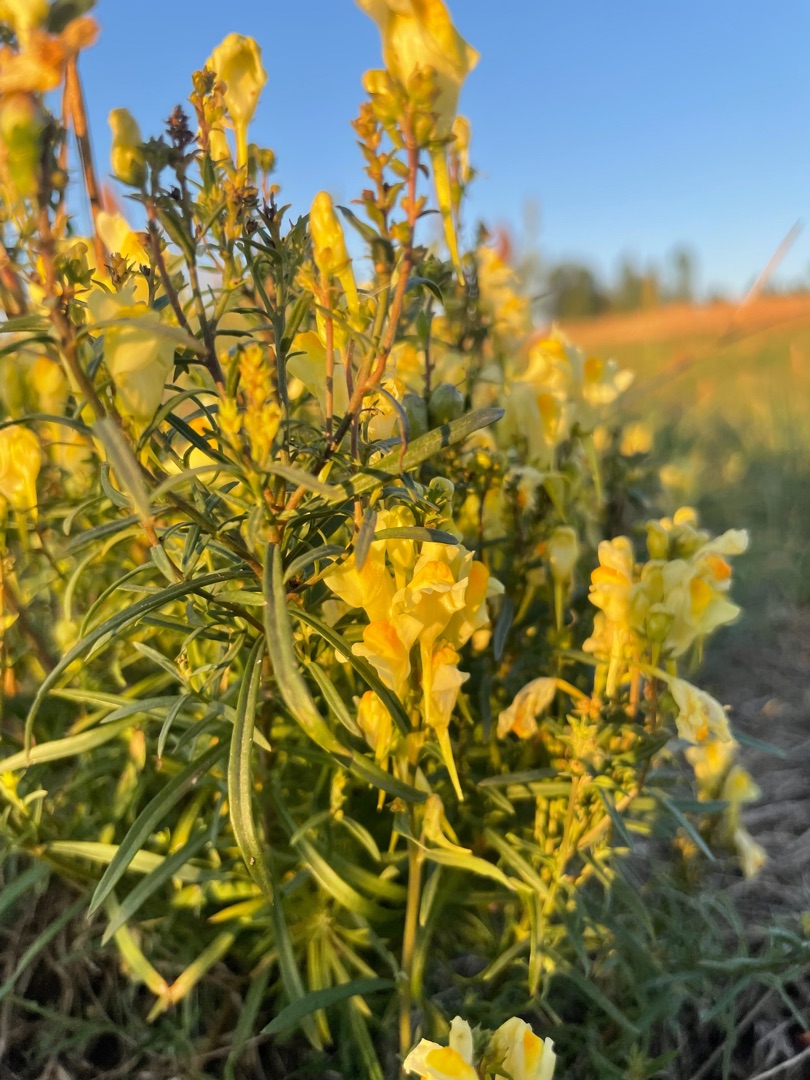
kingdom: Plantae
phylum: Tracheophyta
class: Magnoliopsida
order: Lamiales
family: Plantaginaceae
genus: Linaria
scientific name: Linaria vulgaris
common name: Almindelig torskemund
